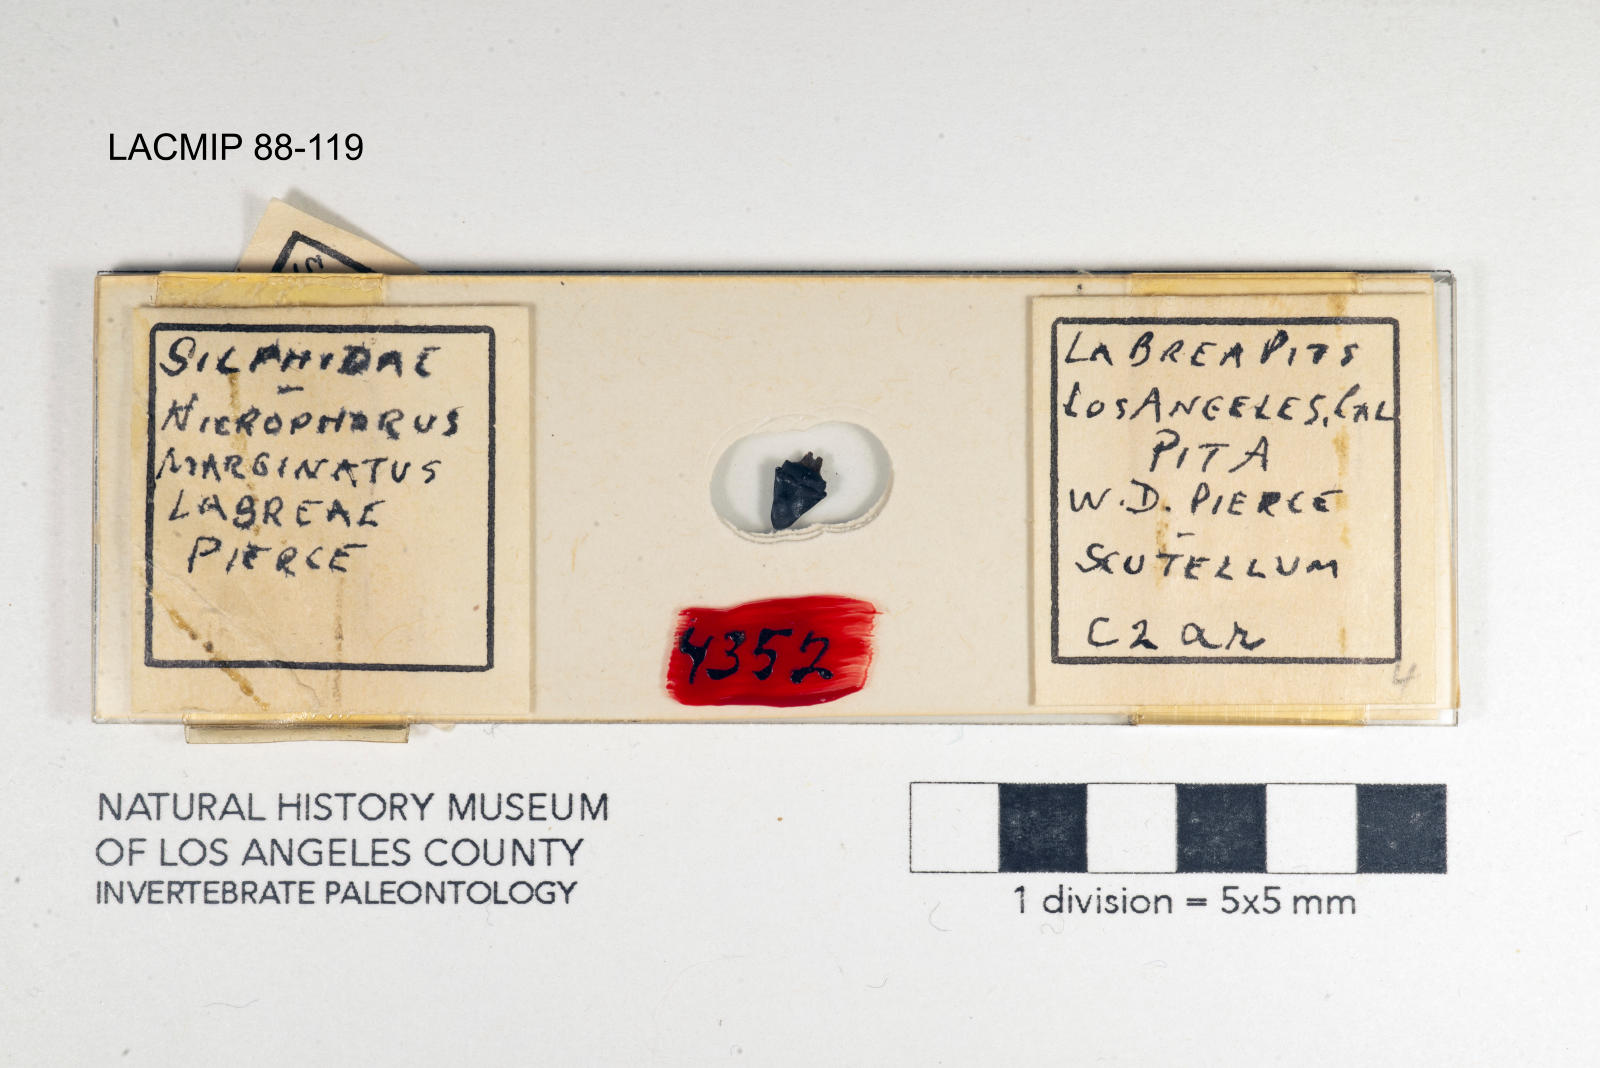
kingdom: Animalia
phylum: Arthropoda
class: Insecta
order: Coleoptera
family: Staphylinidae
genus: Nicrophorus
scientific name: Nicrophorus marginatus
